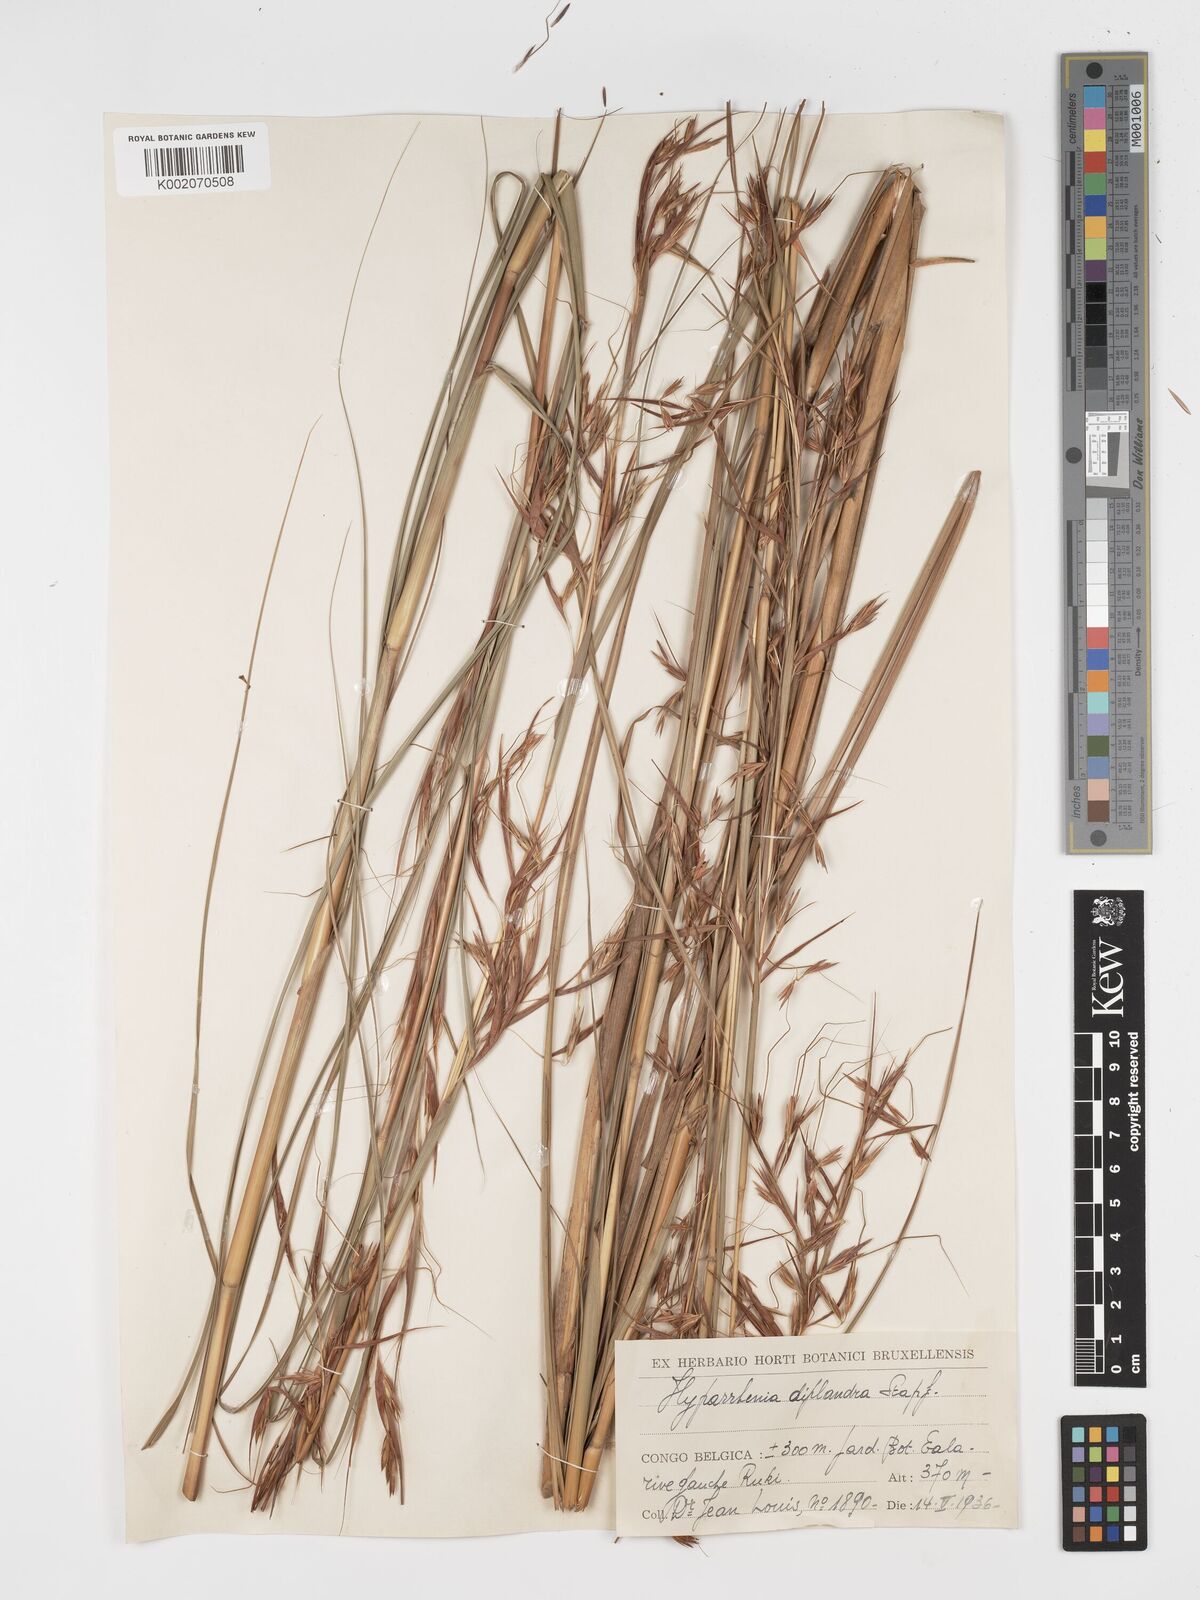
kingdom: Plantae
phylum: Tracheophyta
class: Liliopsida
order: Poales
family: Poaceae
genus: Hyparrhenia
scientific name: Hyparrhenia diplandra
